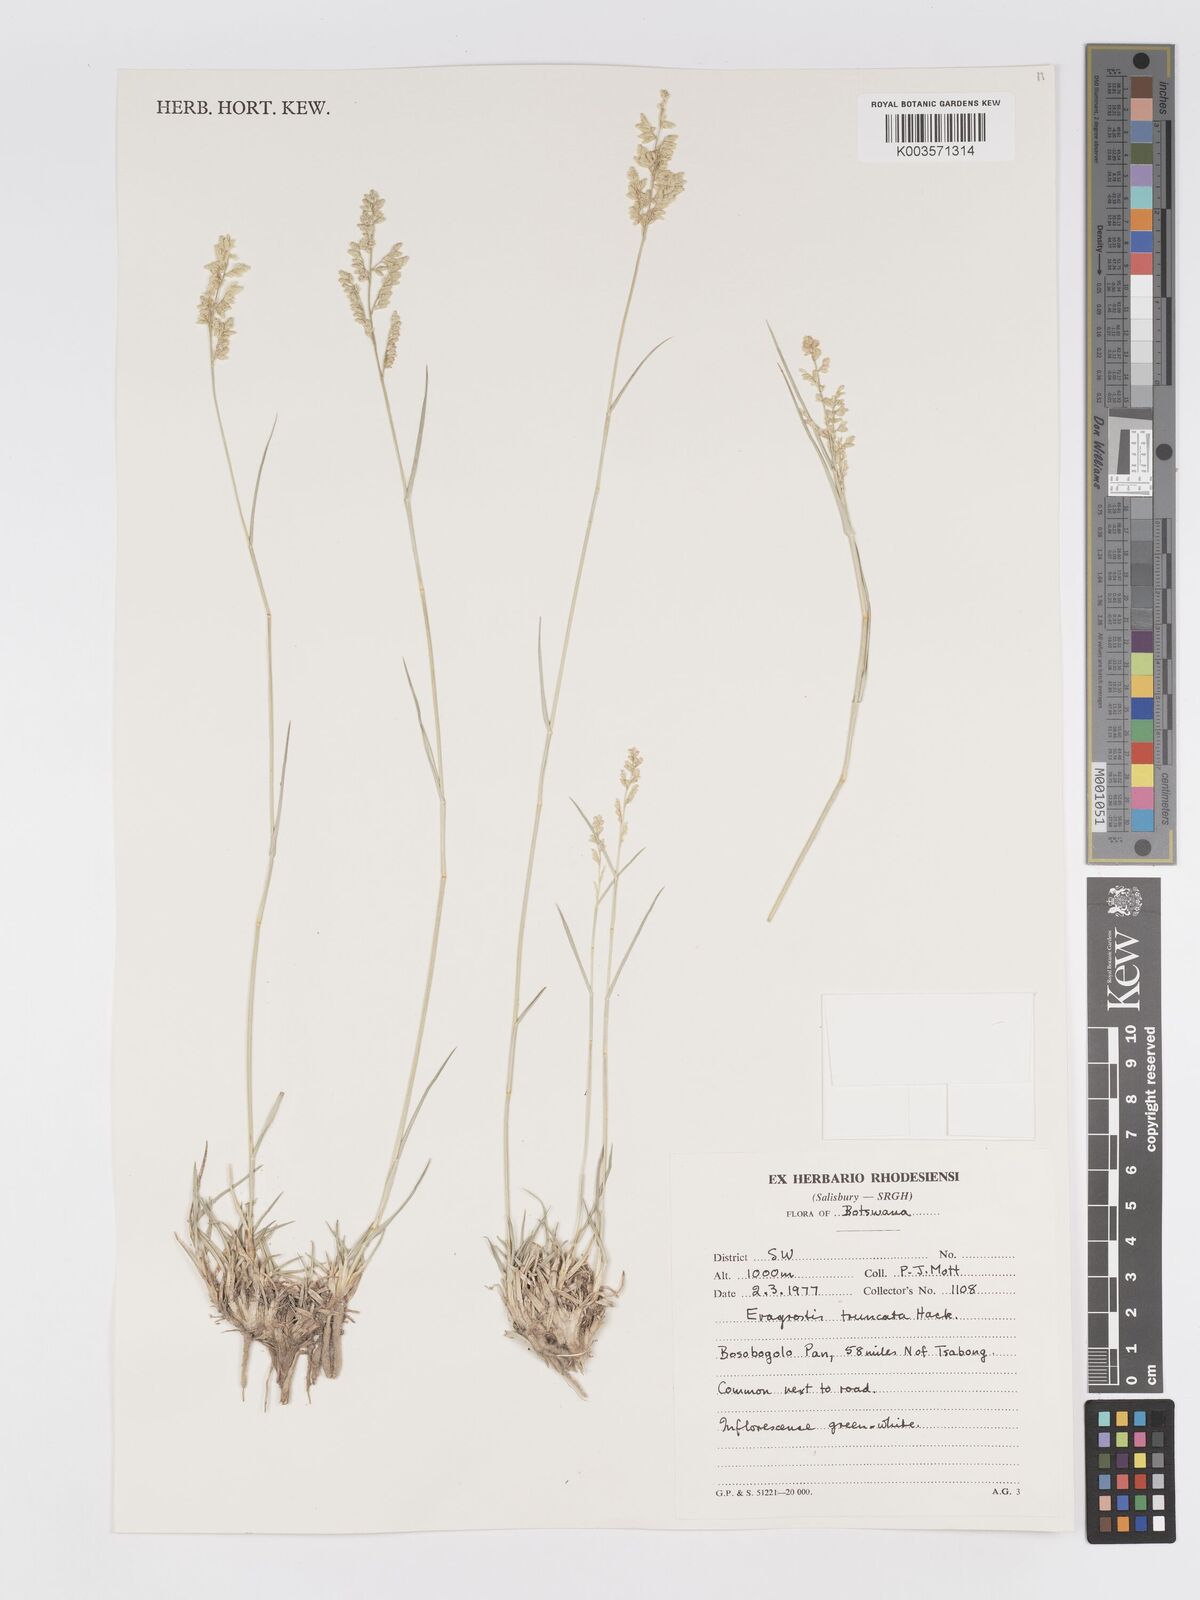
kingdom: Plantae
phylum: Tracheophyta
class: Liliopsida
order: Poales
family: Poaceae
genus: Eragrostis
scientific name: Eragrostis truncata
